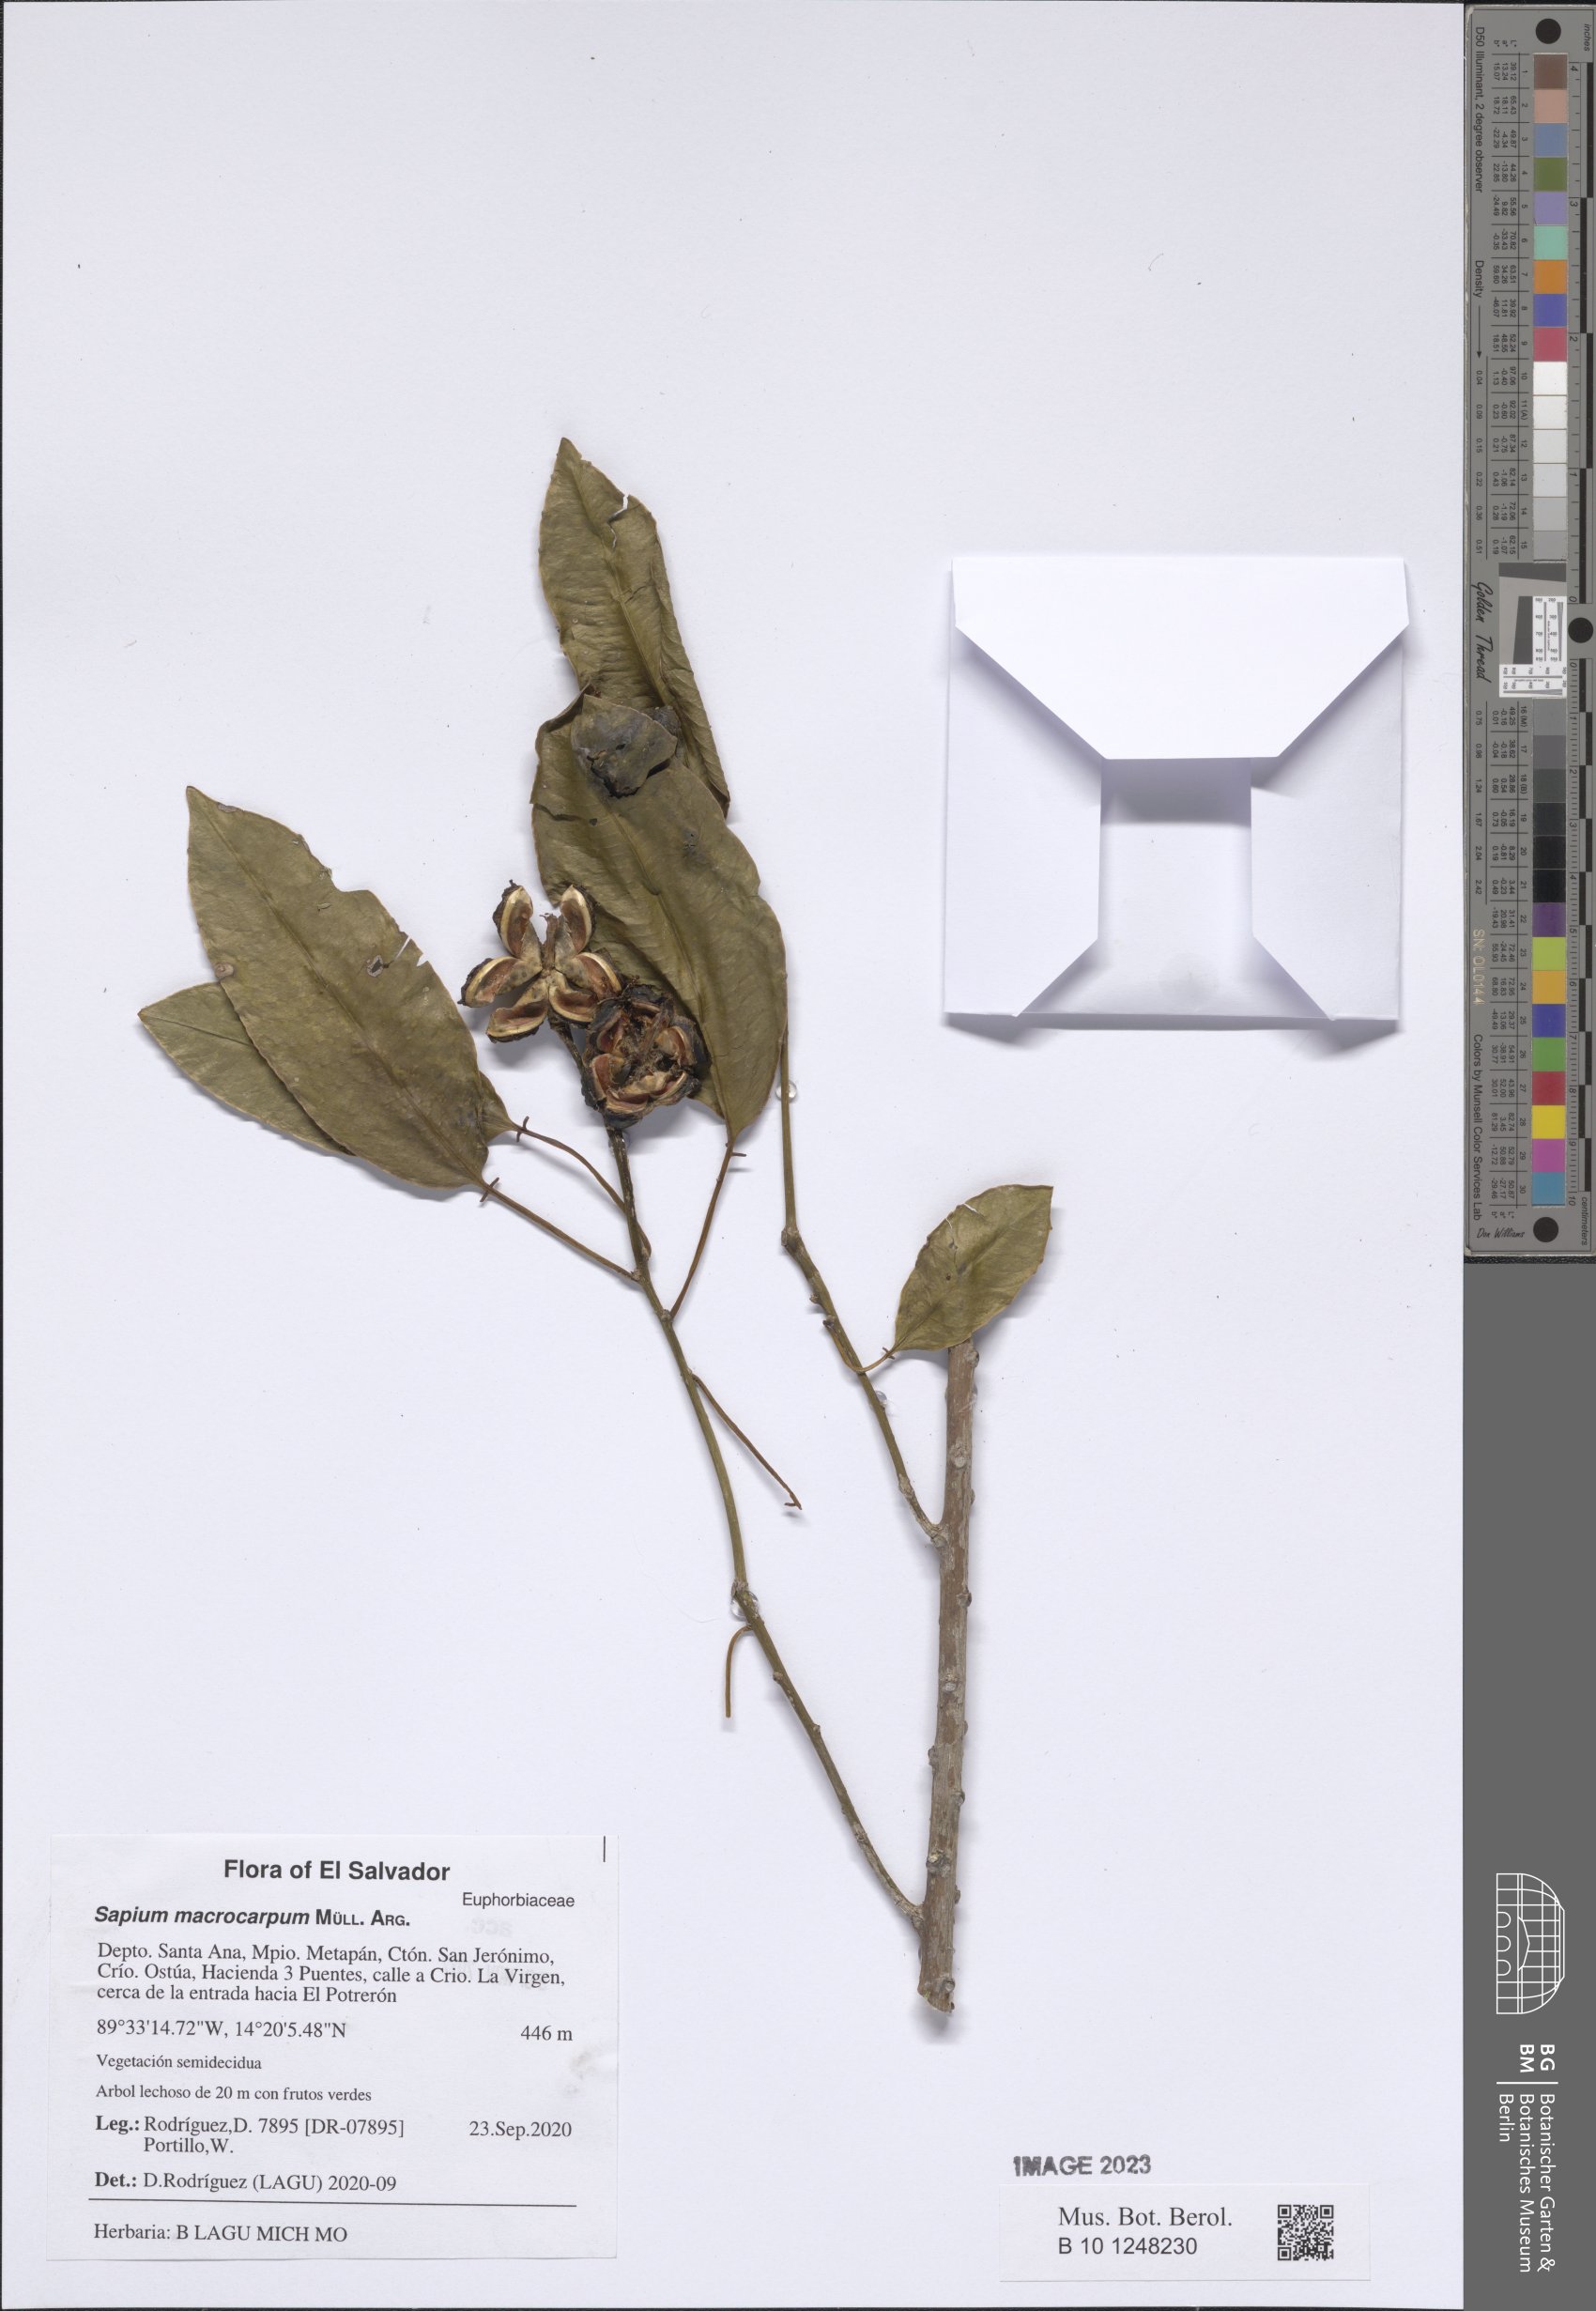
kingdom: Plantae
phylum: Tracheophyta
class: Magnoliopsida
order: Malpighiales
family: Euphorbiaceae
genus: Sapium
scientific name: Sapium macrocarpum
